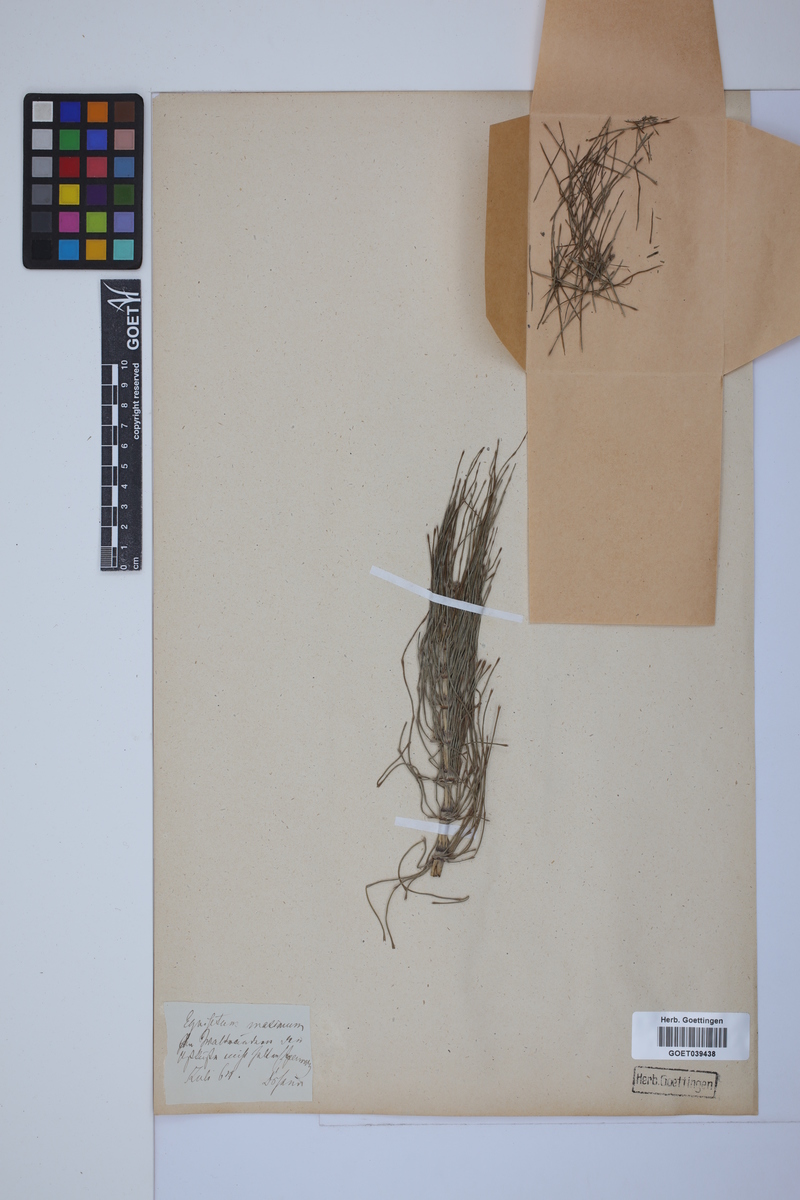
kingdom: Plantae
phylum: Tracheophyta
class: Polypodiopsida
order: Equisetales
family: Equisetaceae
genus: Equisetum
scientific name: Equisetum telmateia
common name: Great horsetail
